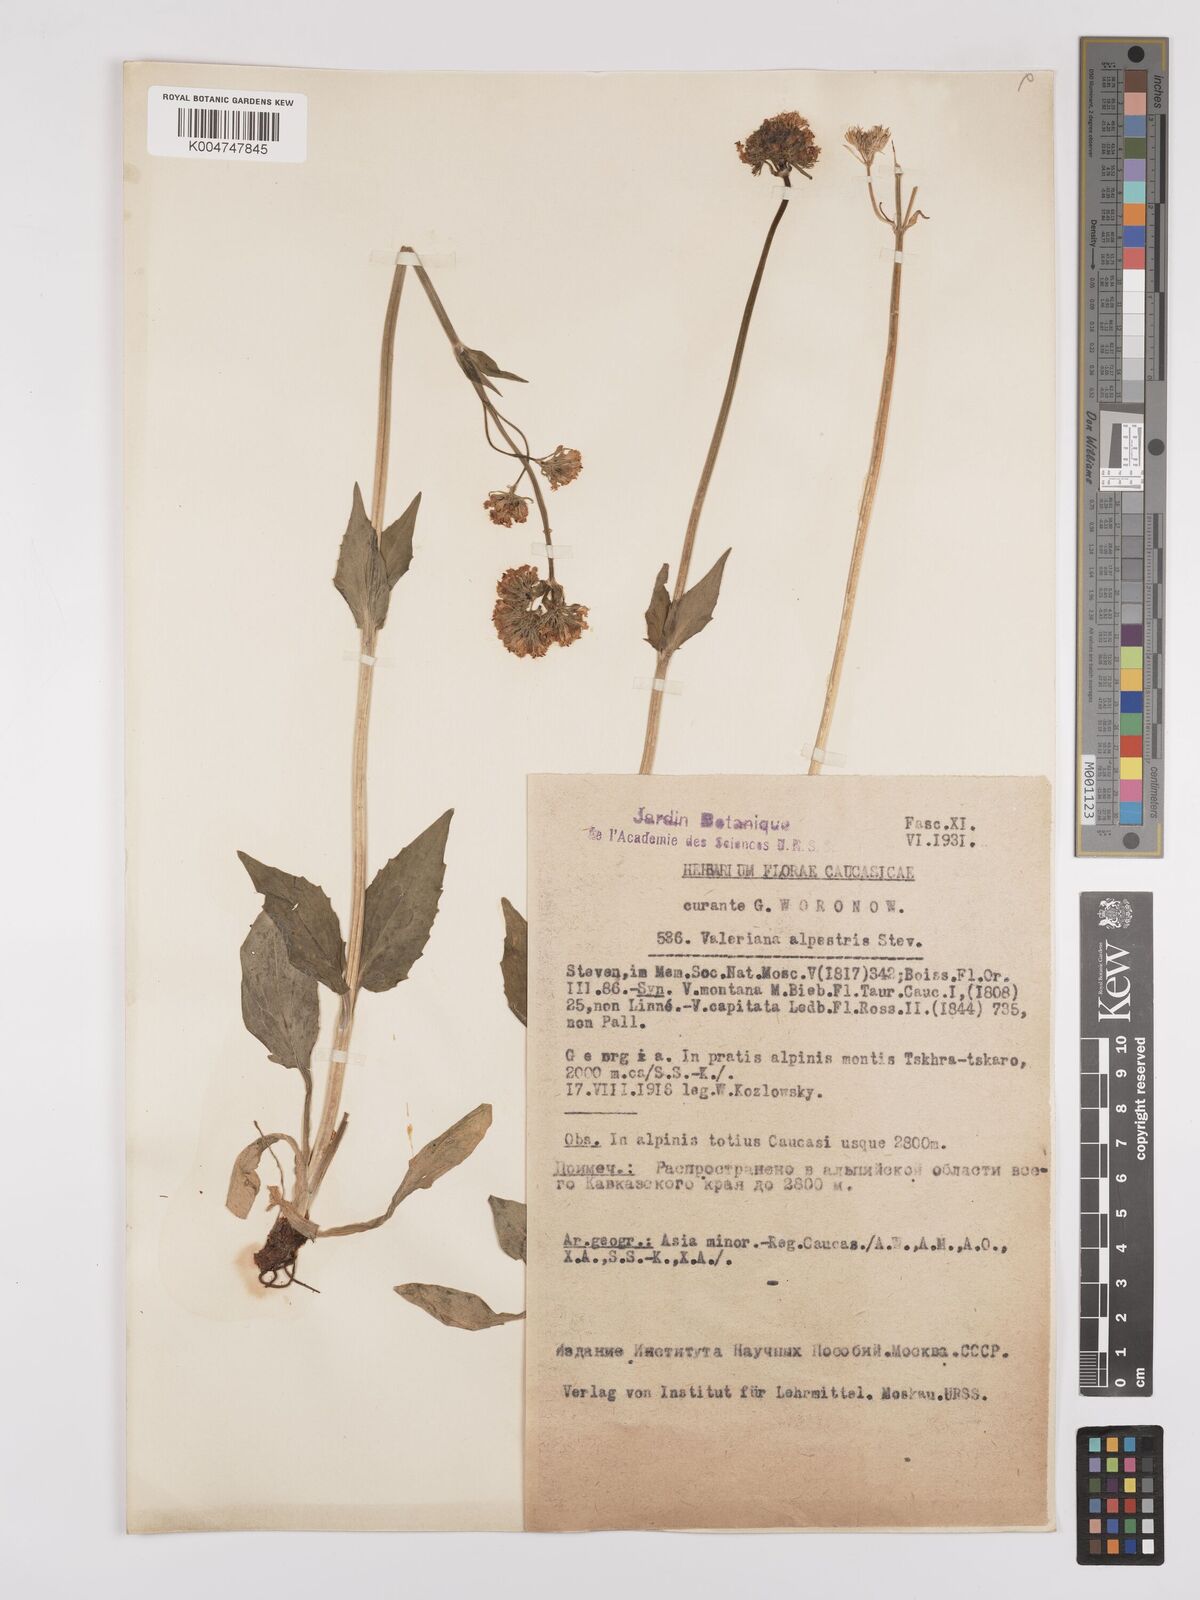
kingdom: Plantae
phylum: Tracheophyta
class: Magnoliopsida
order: Dipsacales
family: Caprifoliaceae
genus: Valeriana
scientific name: Valeriana alpestris
